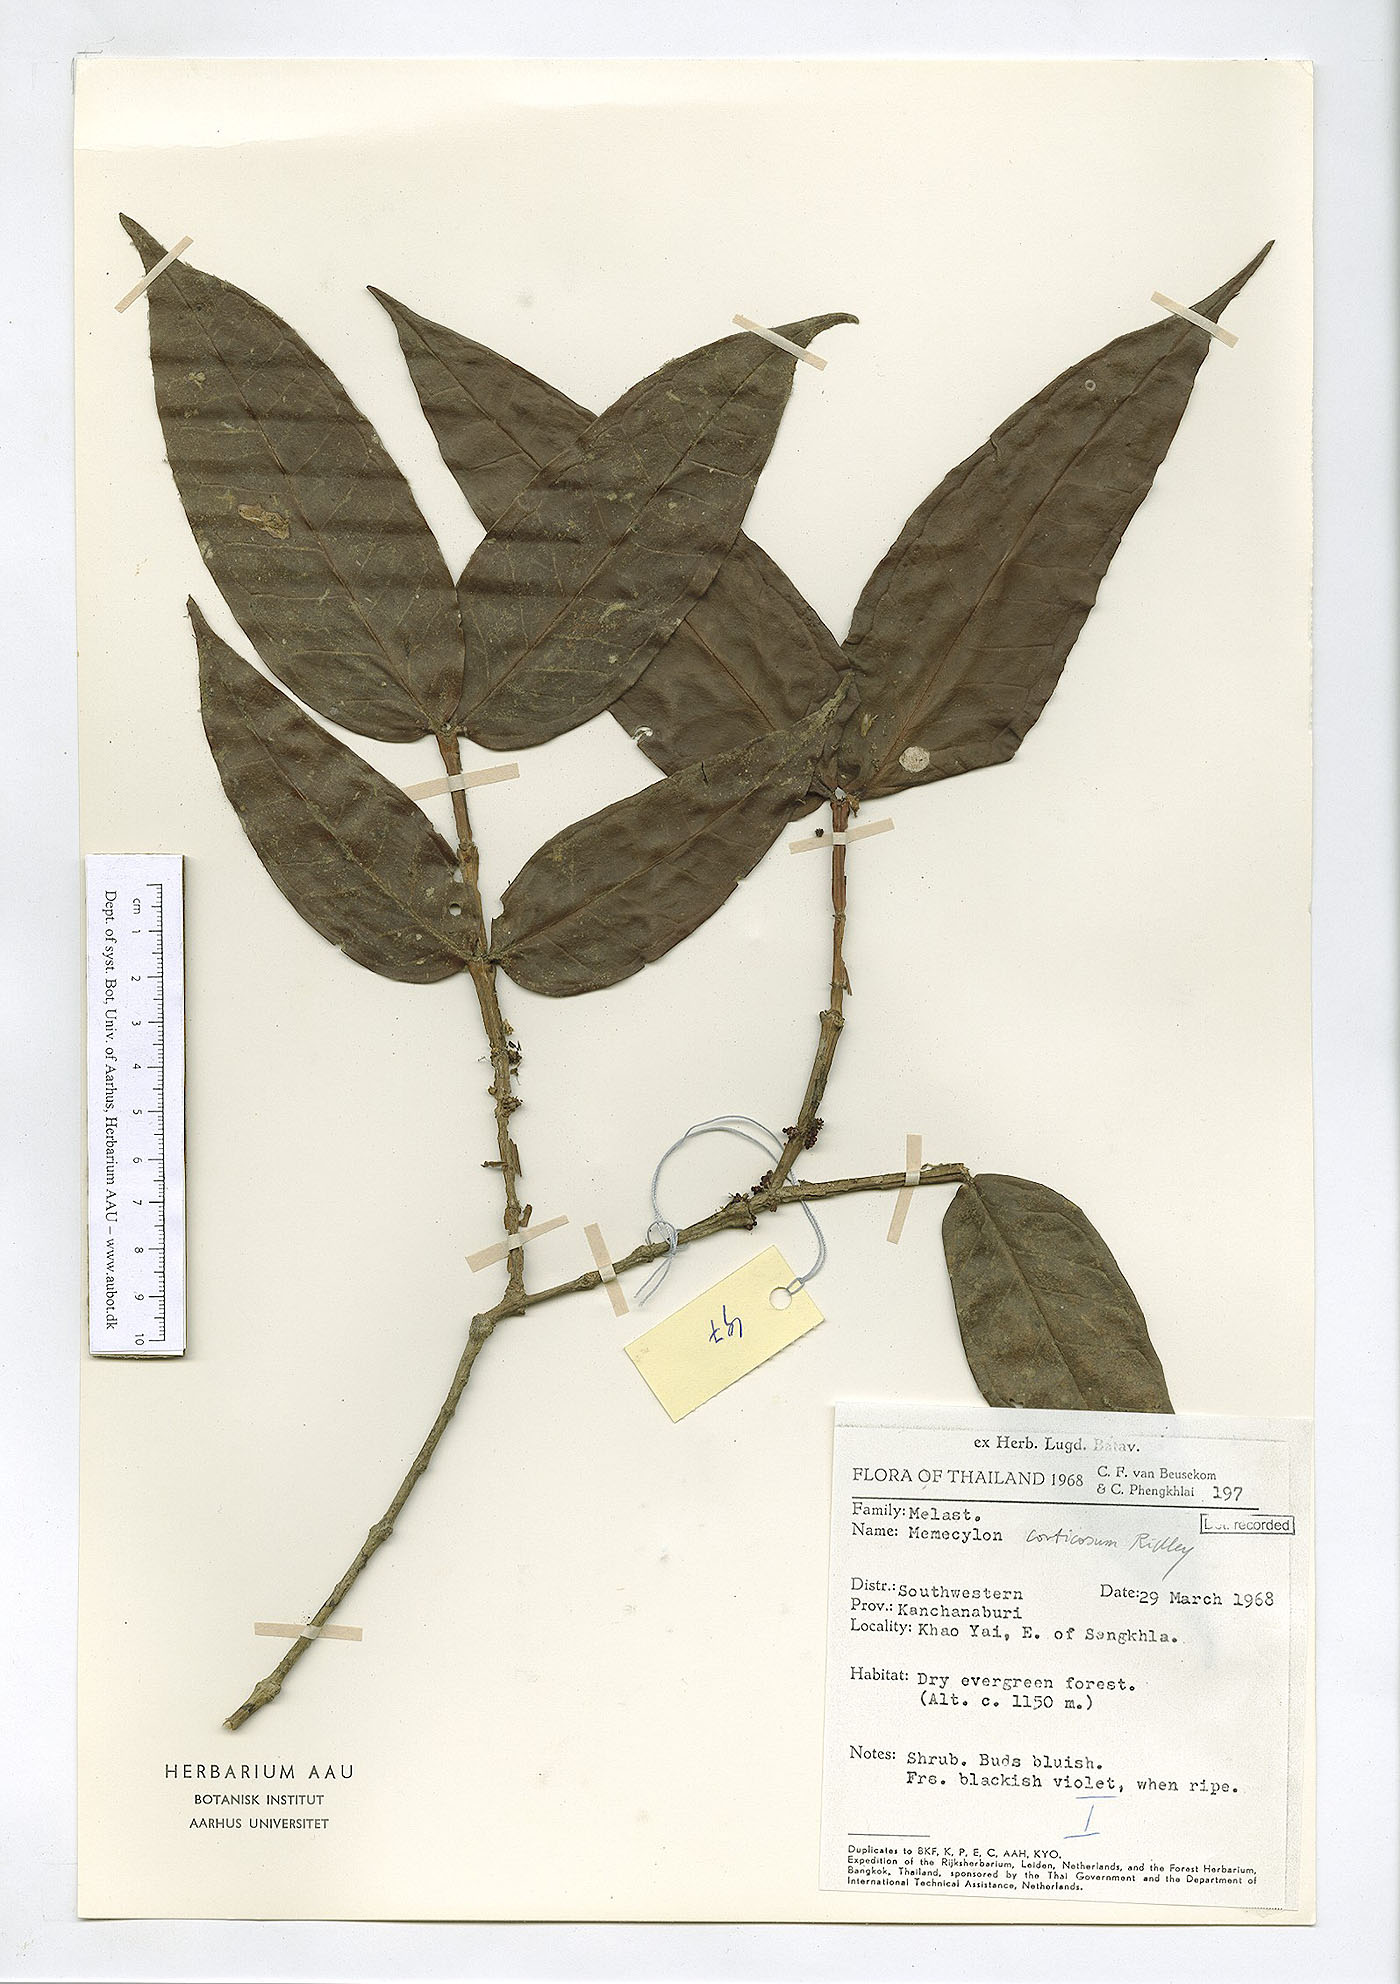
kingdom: Plantae
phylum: Tracheophyta
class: Magnoliopsida
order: Myrtales
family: Melastomataceae
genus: Memecylon
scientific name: Memecylon corticosum
